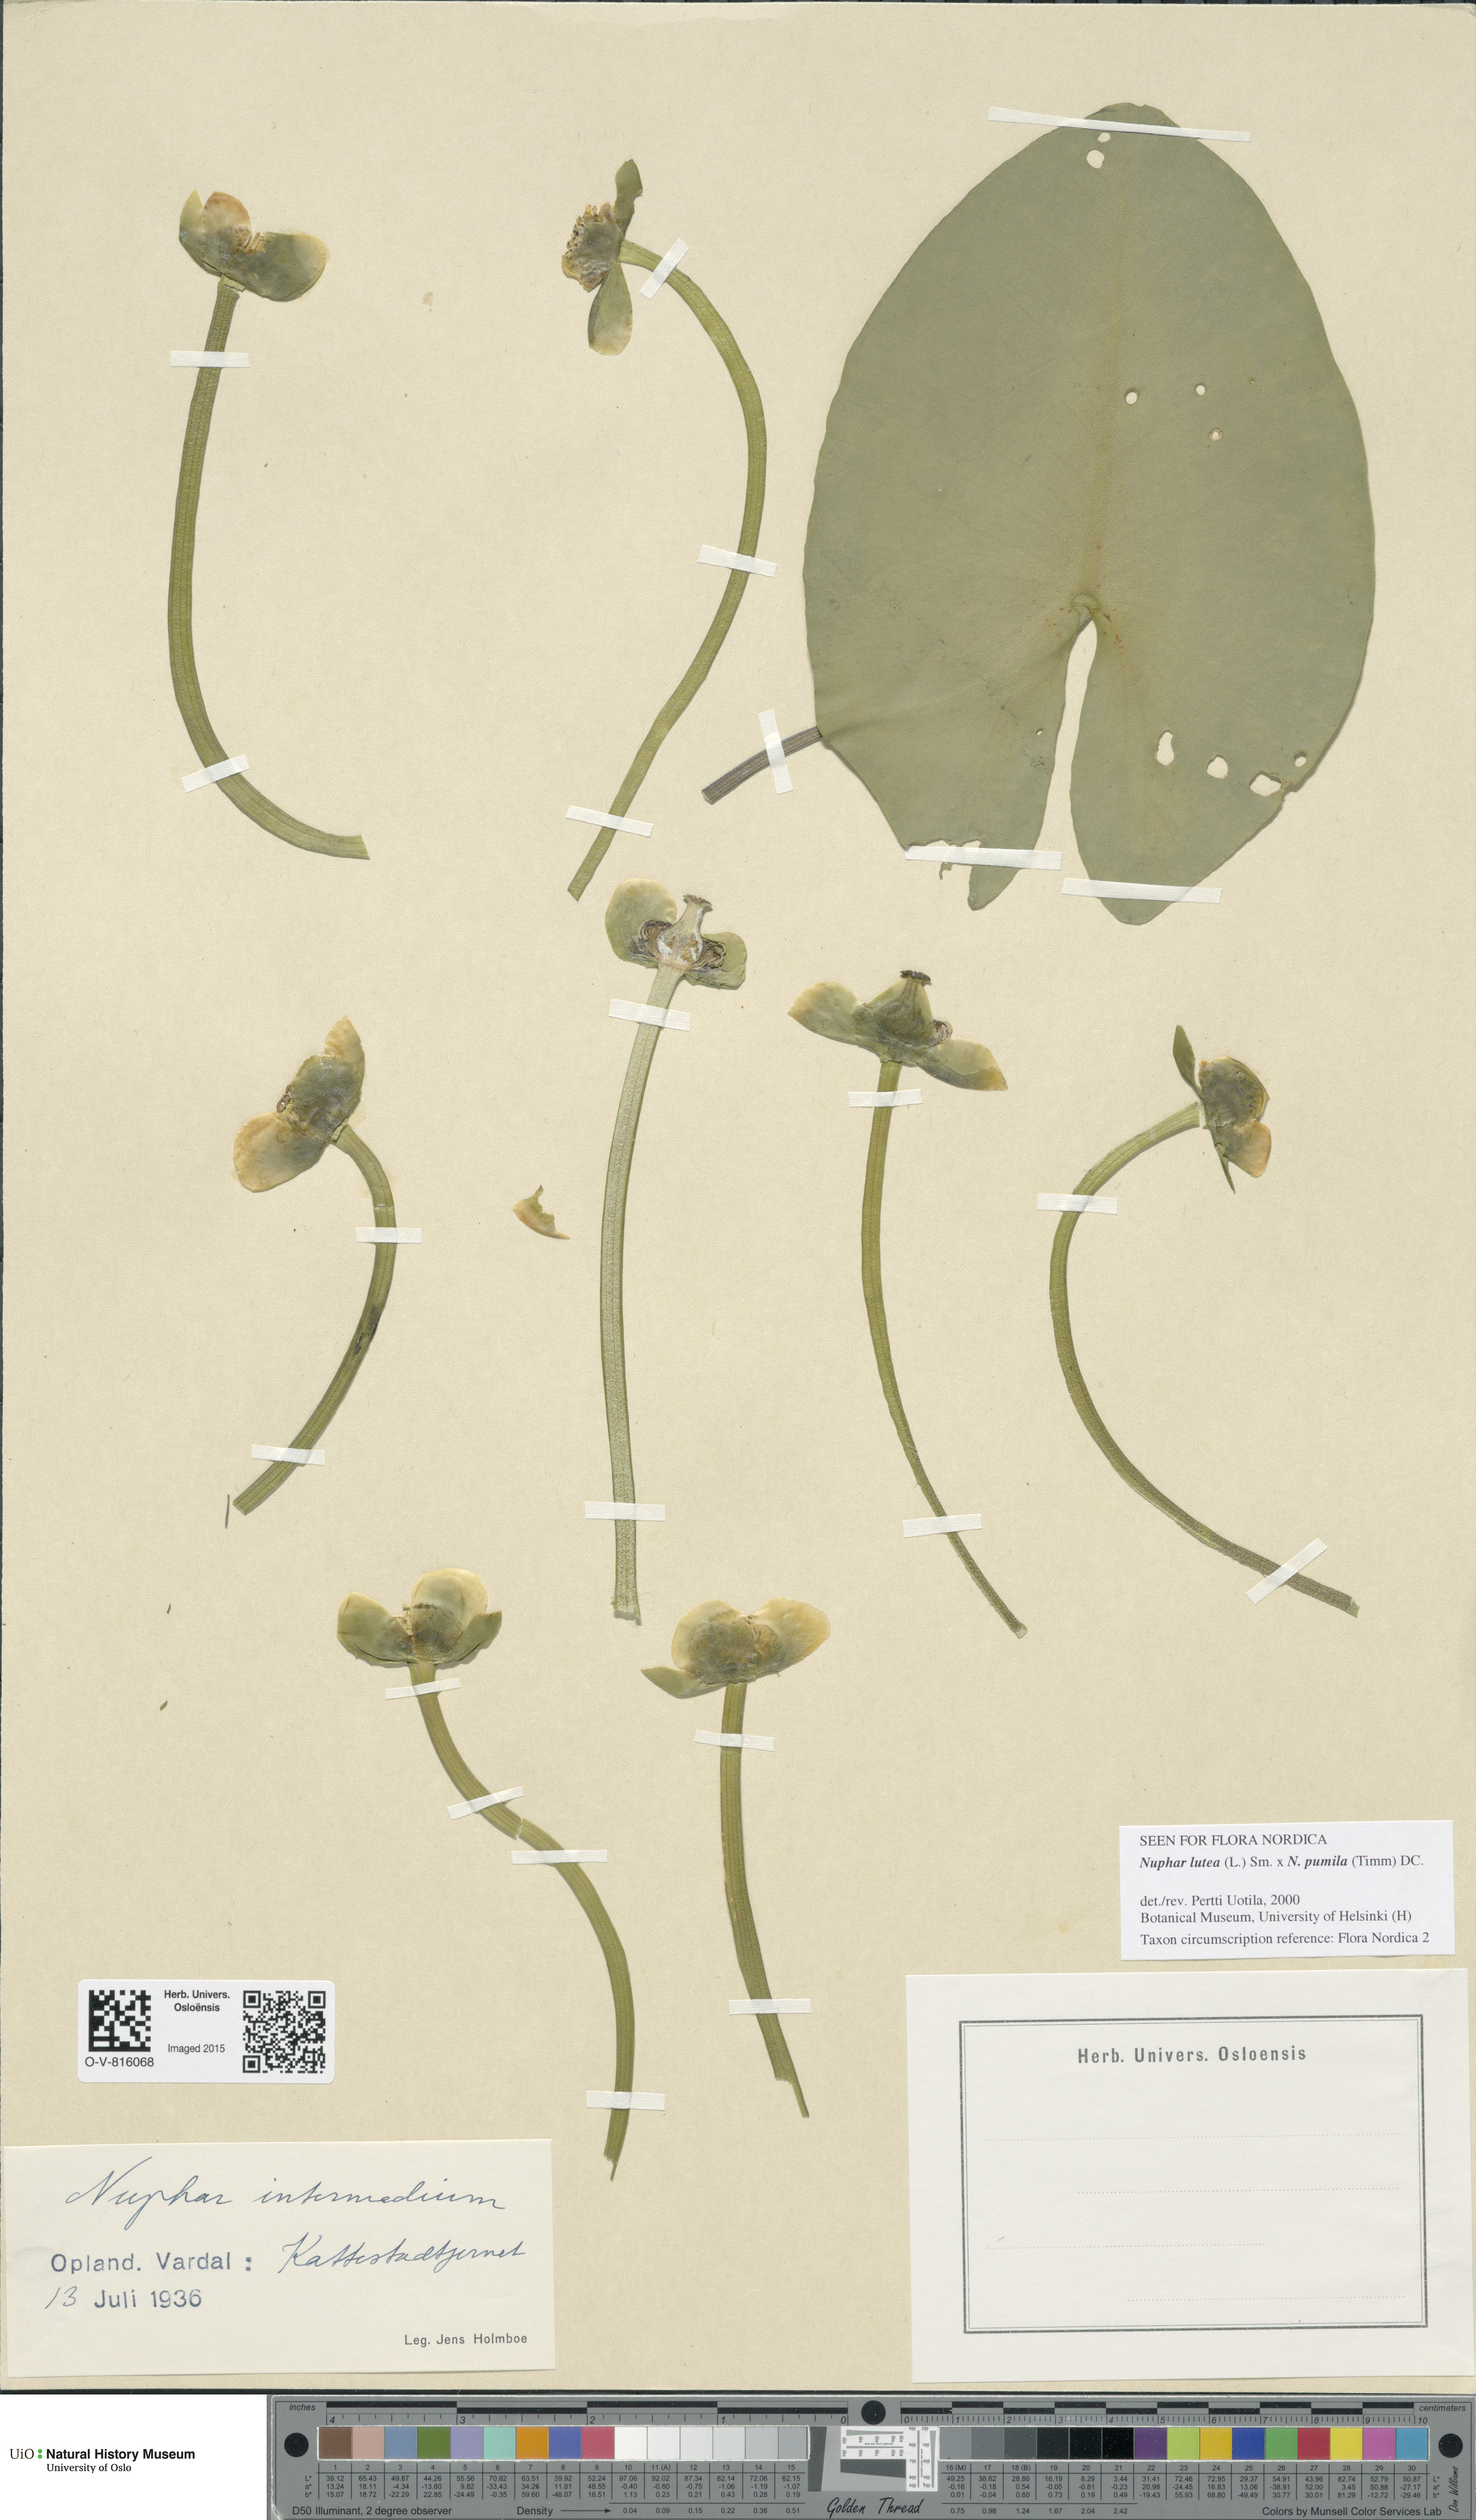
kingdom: Plantae
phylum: Tracheophyta
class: Magnoliopsida
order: Nymphaeales
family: Nymphaeaceae
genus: Nuphar
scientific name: Nuphar
